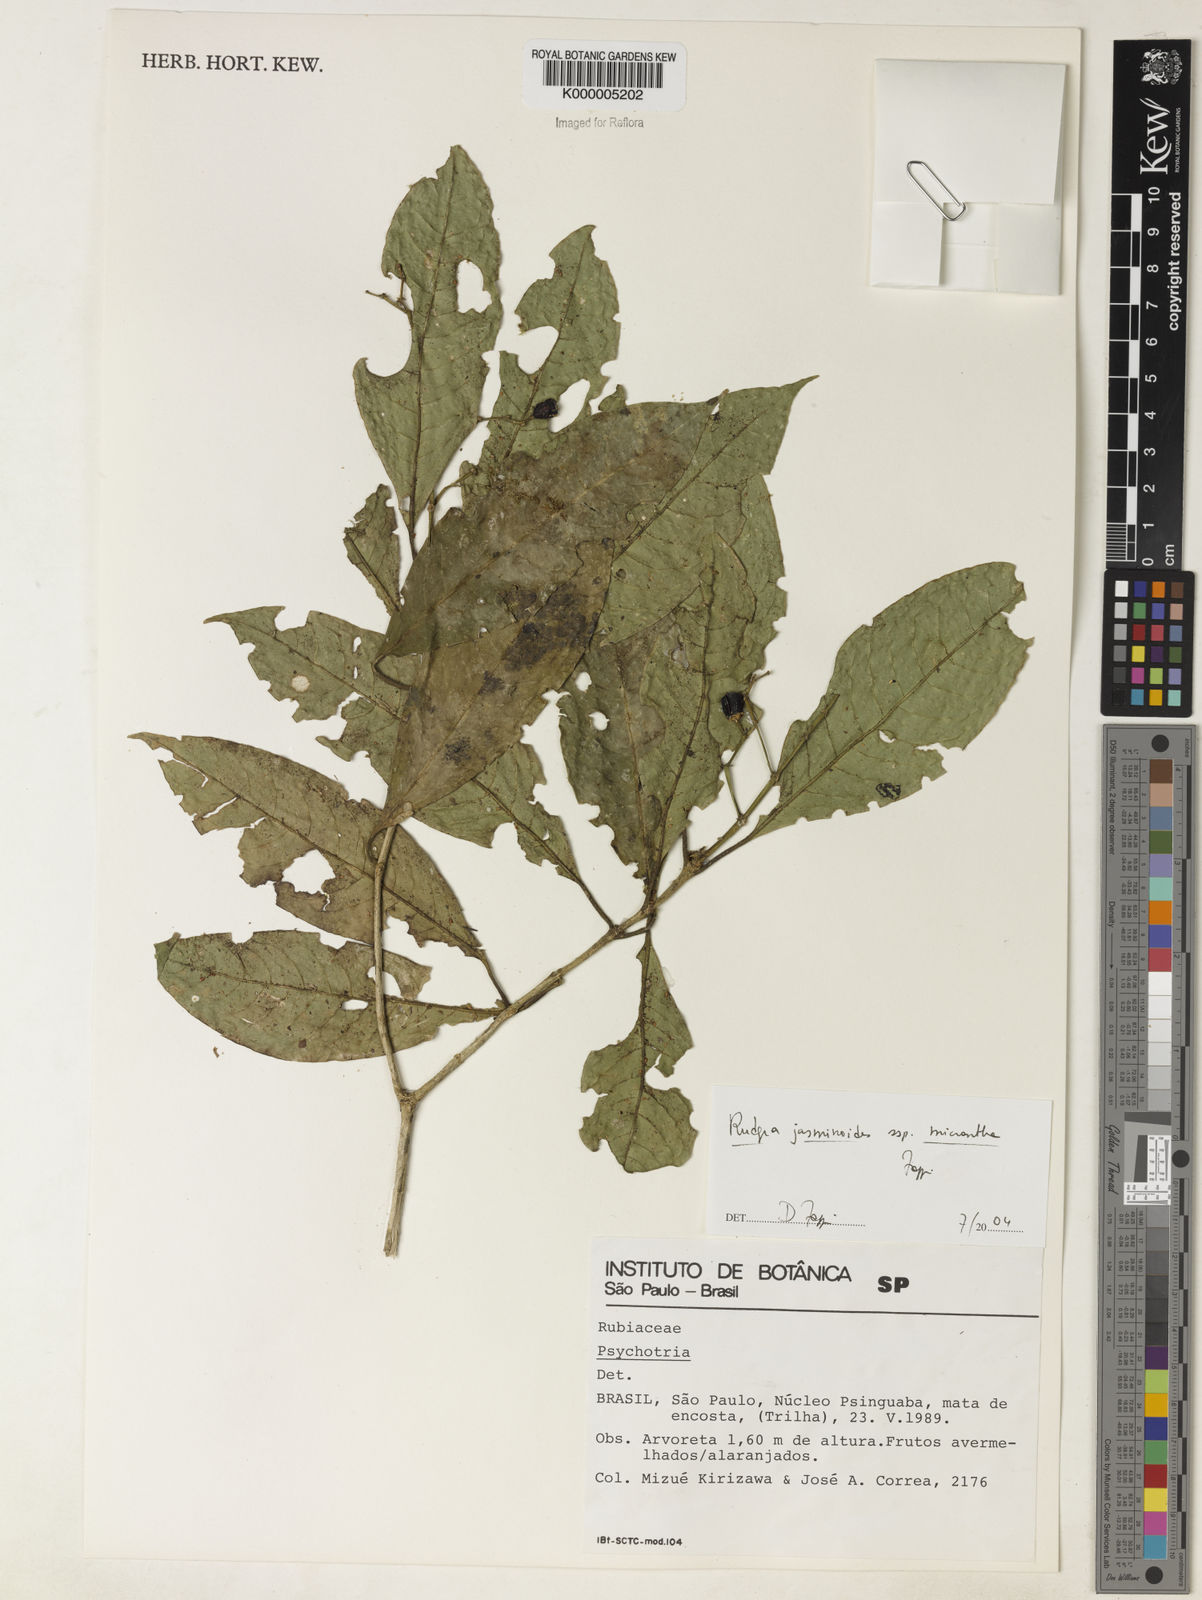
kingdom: Plantae
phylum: Tracheophyta
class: Magnoliopsida
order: Gentianales
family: Rubiaceae
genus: Rudgea
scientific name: Rudgea jasminoides
